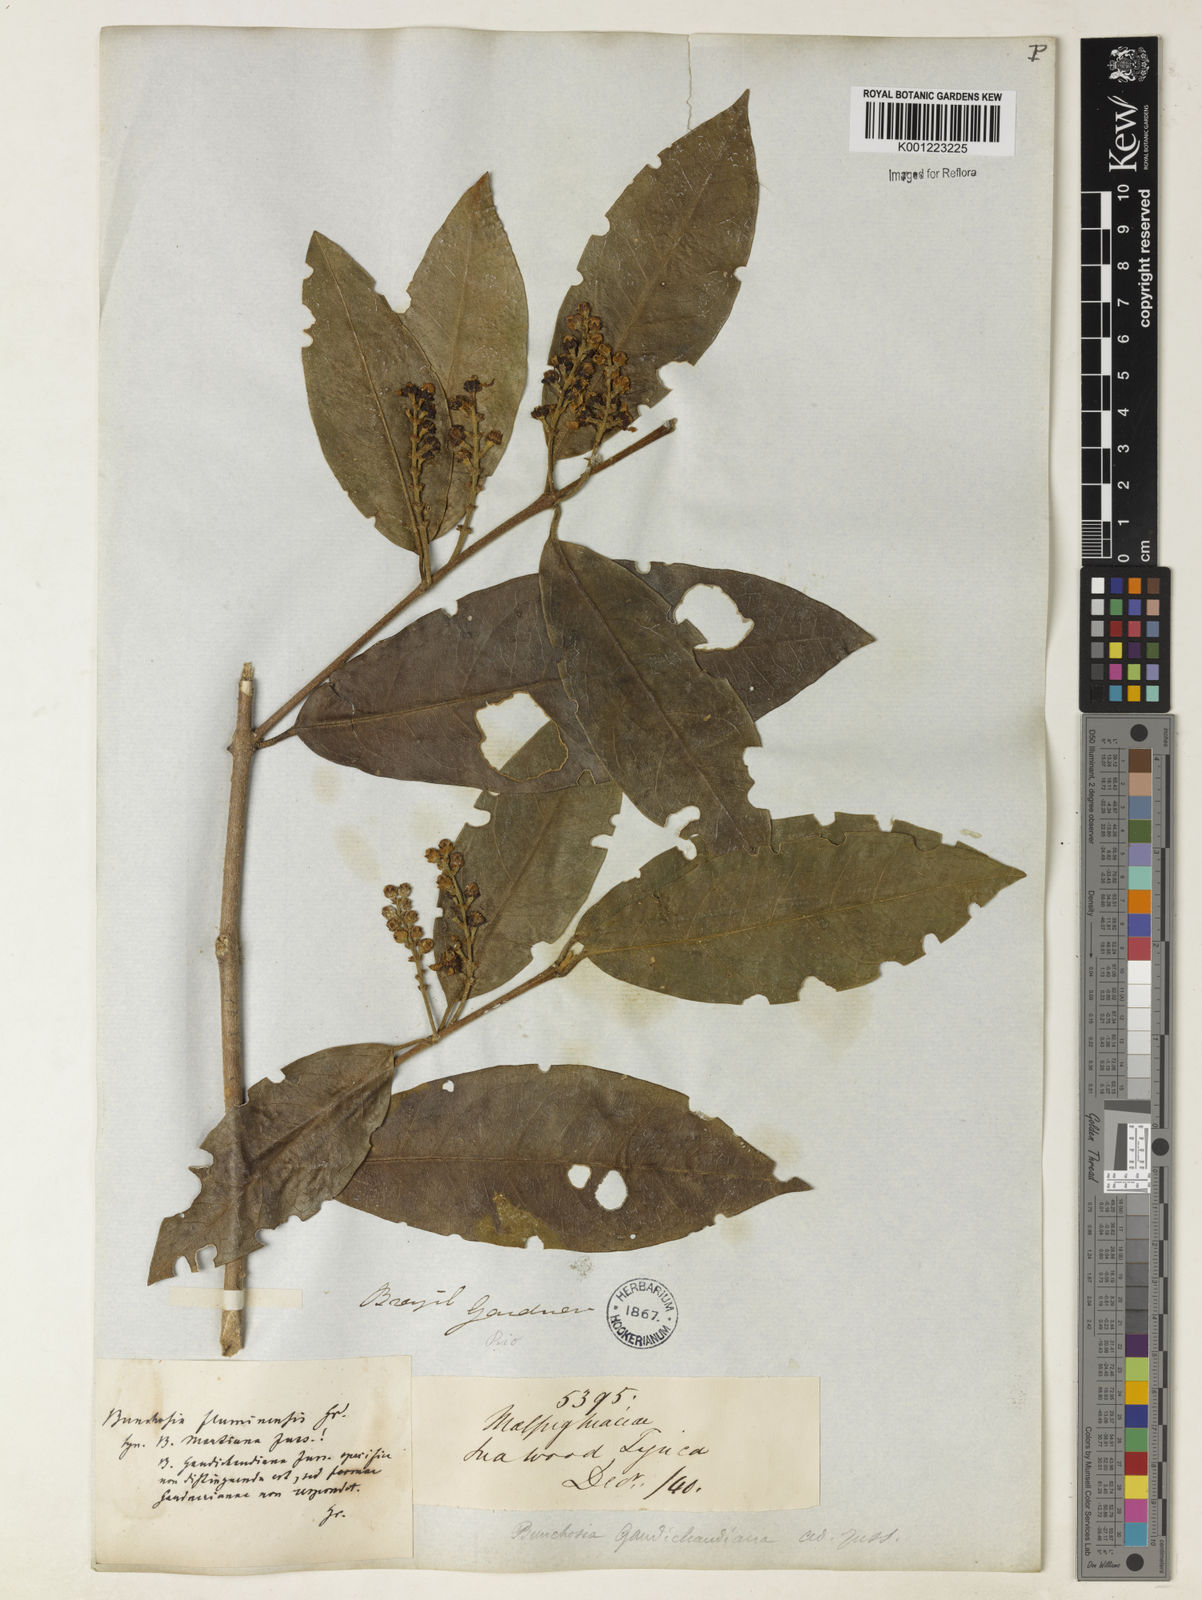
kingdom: Plantae
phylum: Tracheophyta
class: Magnoliopsida
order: Malpighiales
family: Malpighiaceae
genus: Bunchosia
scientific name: Bunchosia fluminensis
